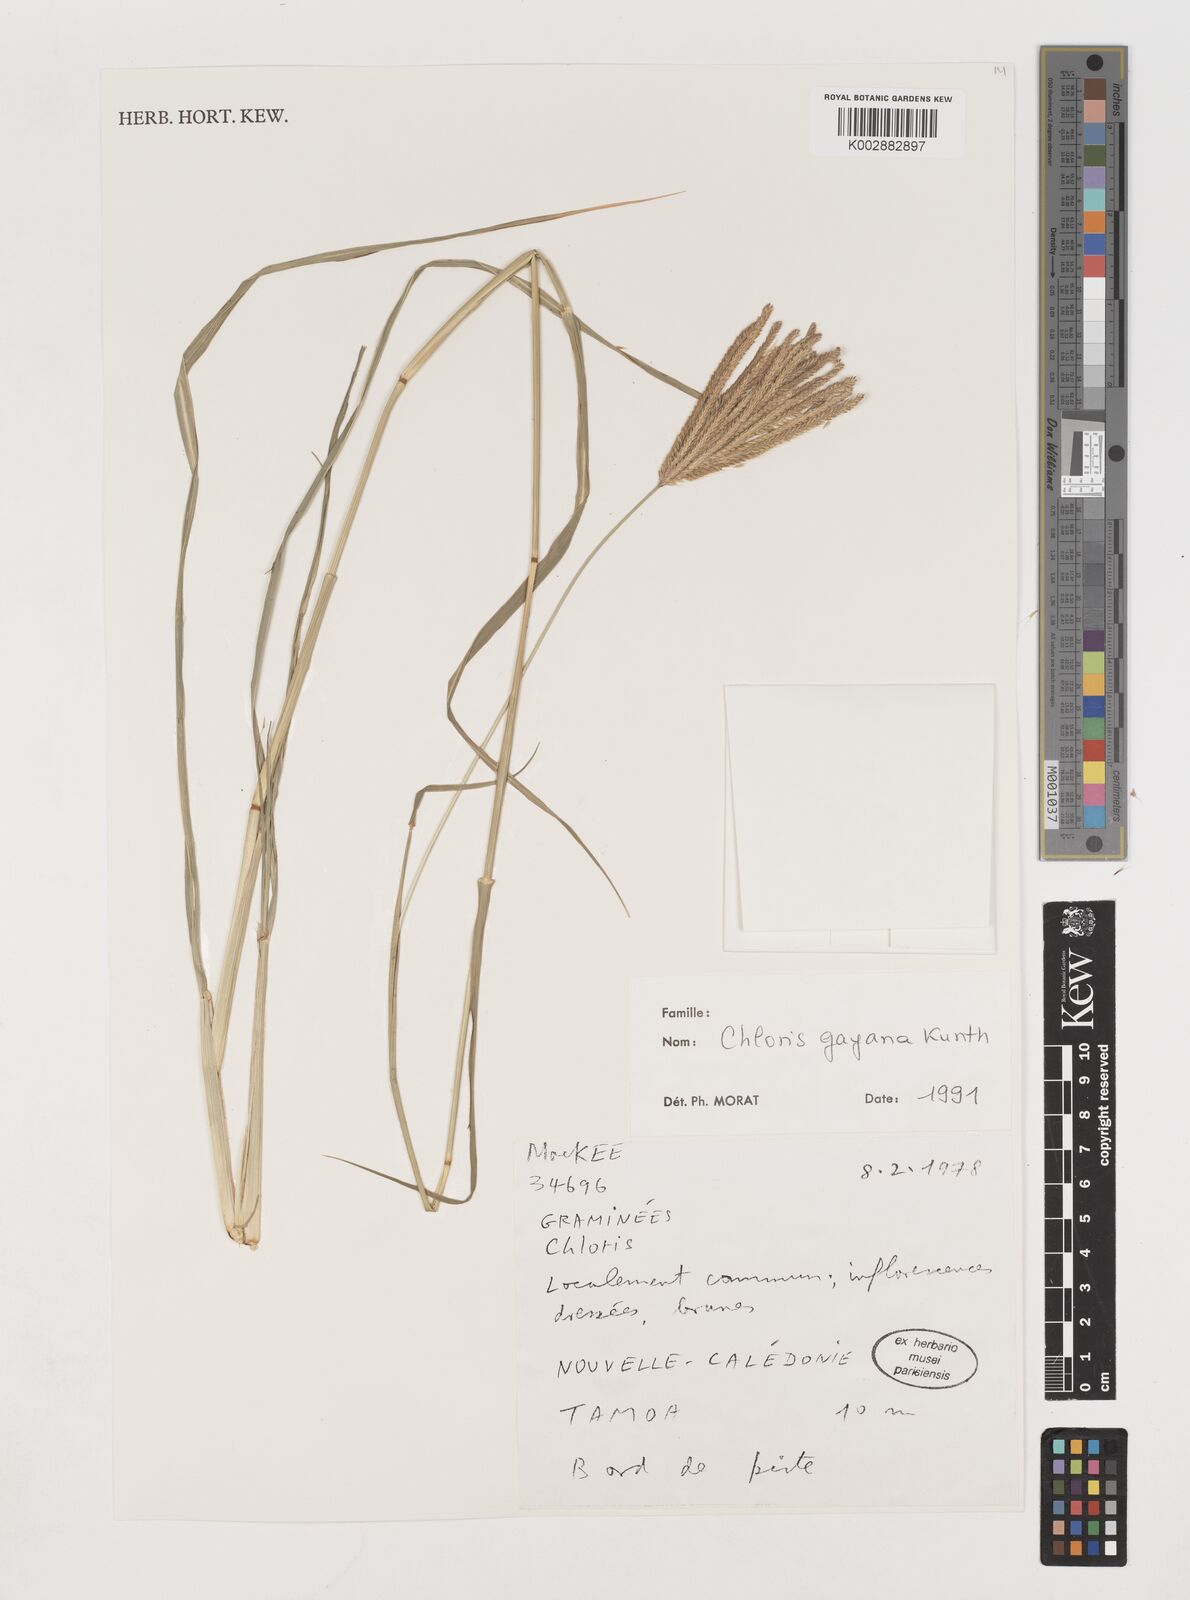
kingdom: Plantae
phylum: Tracheophyta
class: Liliopsida
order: Poales
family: Poaceae
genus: Chloris
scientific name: Chloris gayana
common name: Rhodes grass
